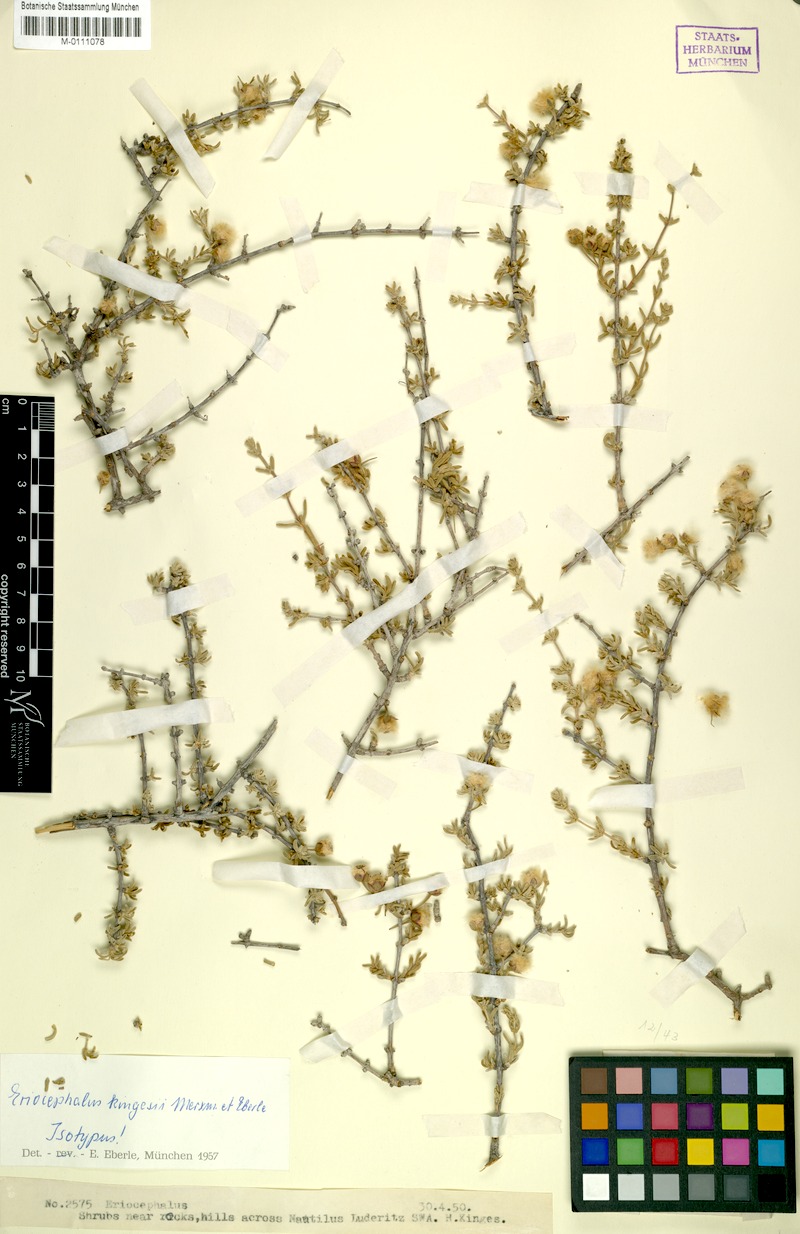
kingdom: Plantae
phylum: Tracheophyta
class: Magnoliopsida
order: Asterales
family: Asteraceae
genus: Eriocephalus
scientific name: Eriocephalus kingesii
